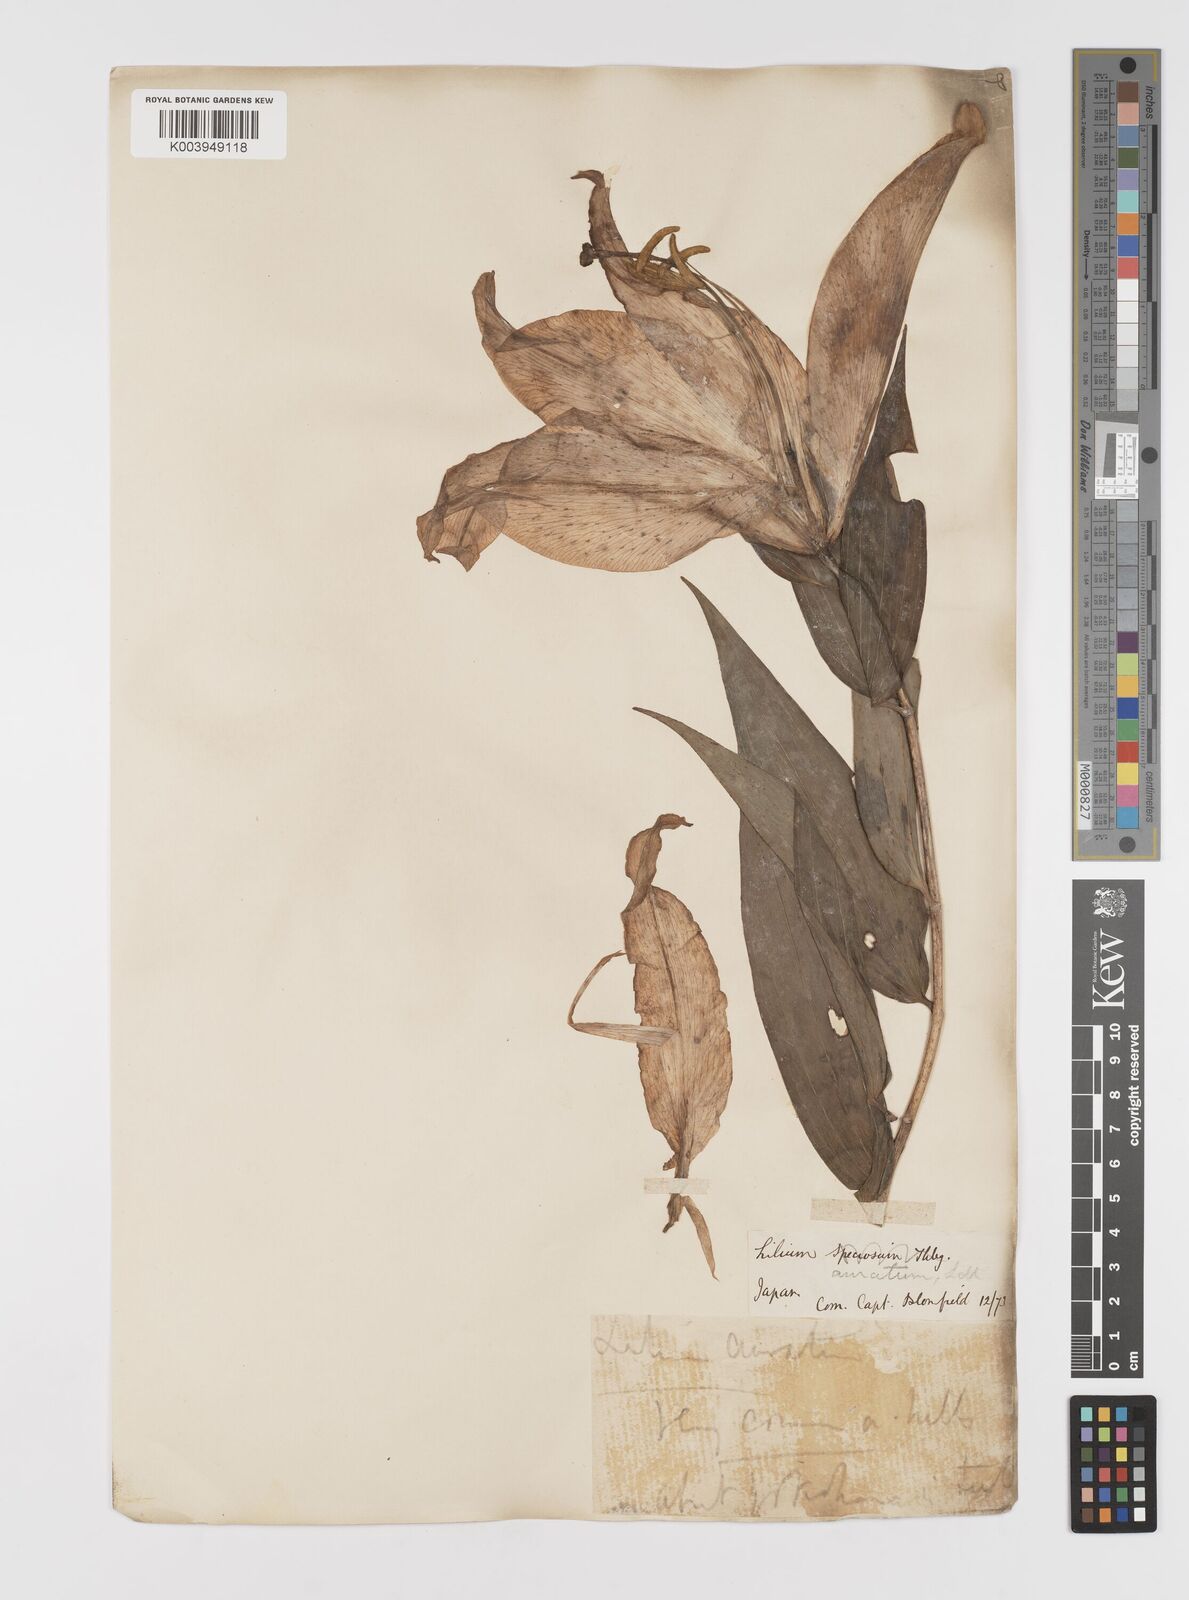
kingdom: Plantae
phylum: Tracheophyta
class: Liliopsida
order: Liliales
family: Liliaceae
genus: Lilium
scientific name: Lilium auratum
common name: Golden-ray lily
